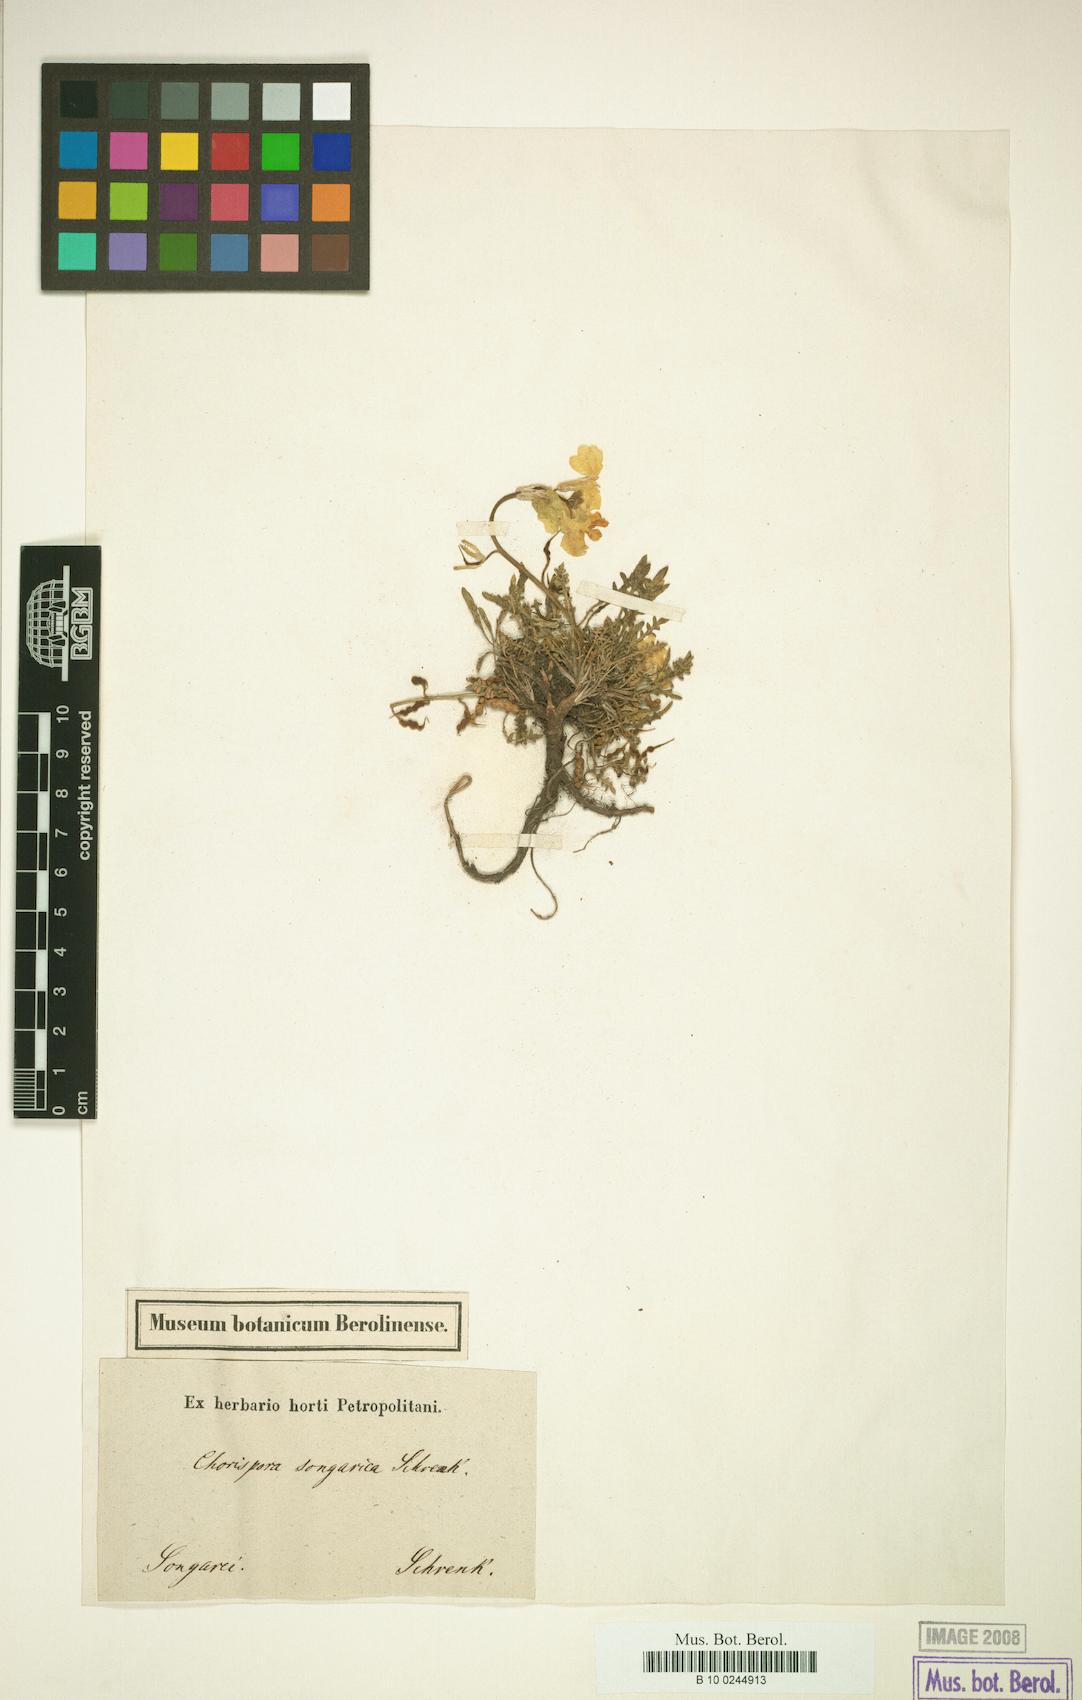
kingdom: Plantae
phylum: Tracheophyta
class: Magnoliopsida
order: Brassicales
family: Brassicaceae
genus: Chorispora
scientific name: Chorispora songarica
